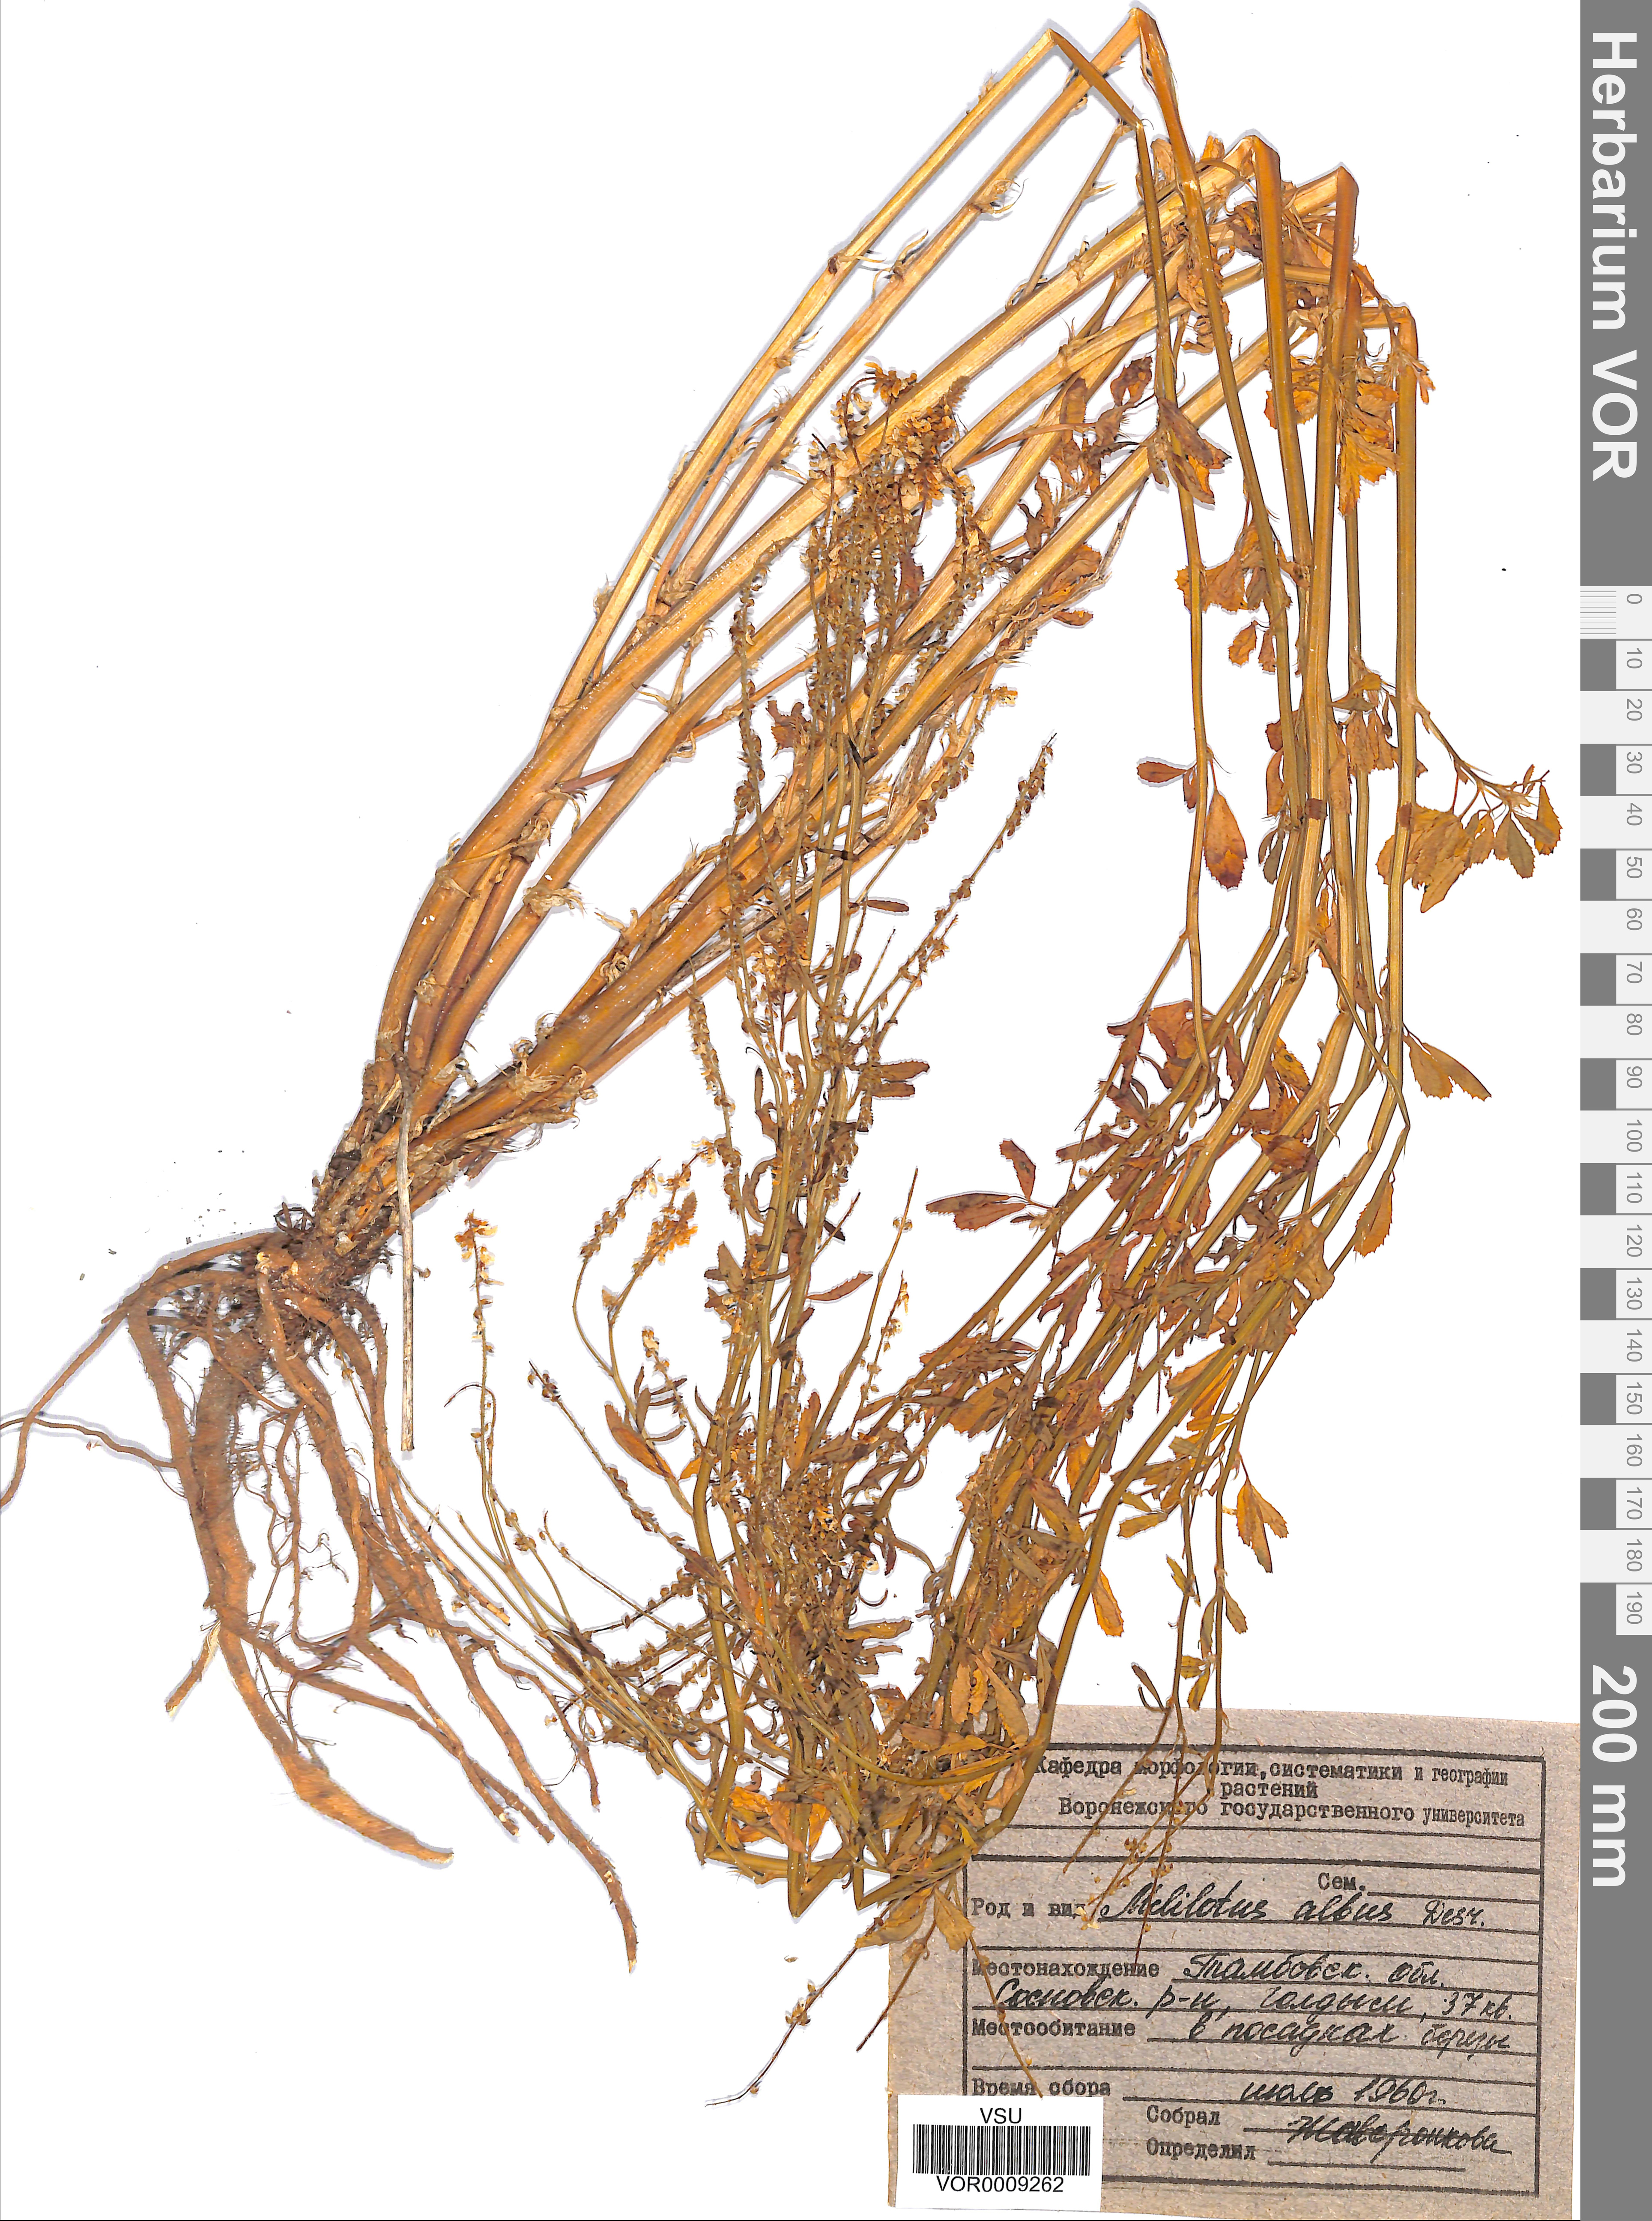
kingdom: Plantae
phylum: Tracheophyta
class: Magnoliopsida
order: Fabales
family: Fabaceae
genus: Melilotus
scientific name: Melilotus albus
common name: White melilot
